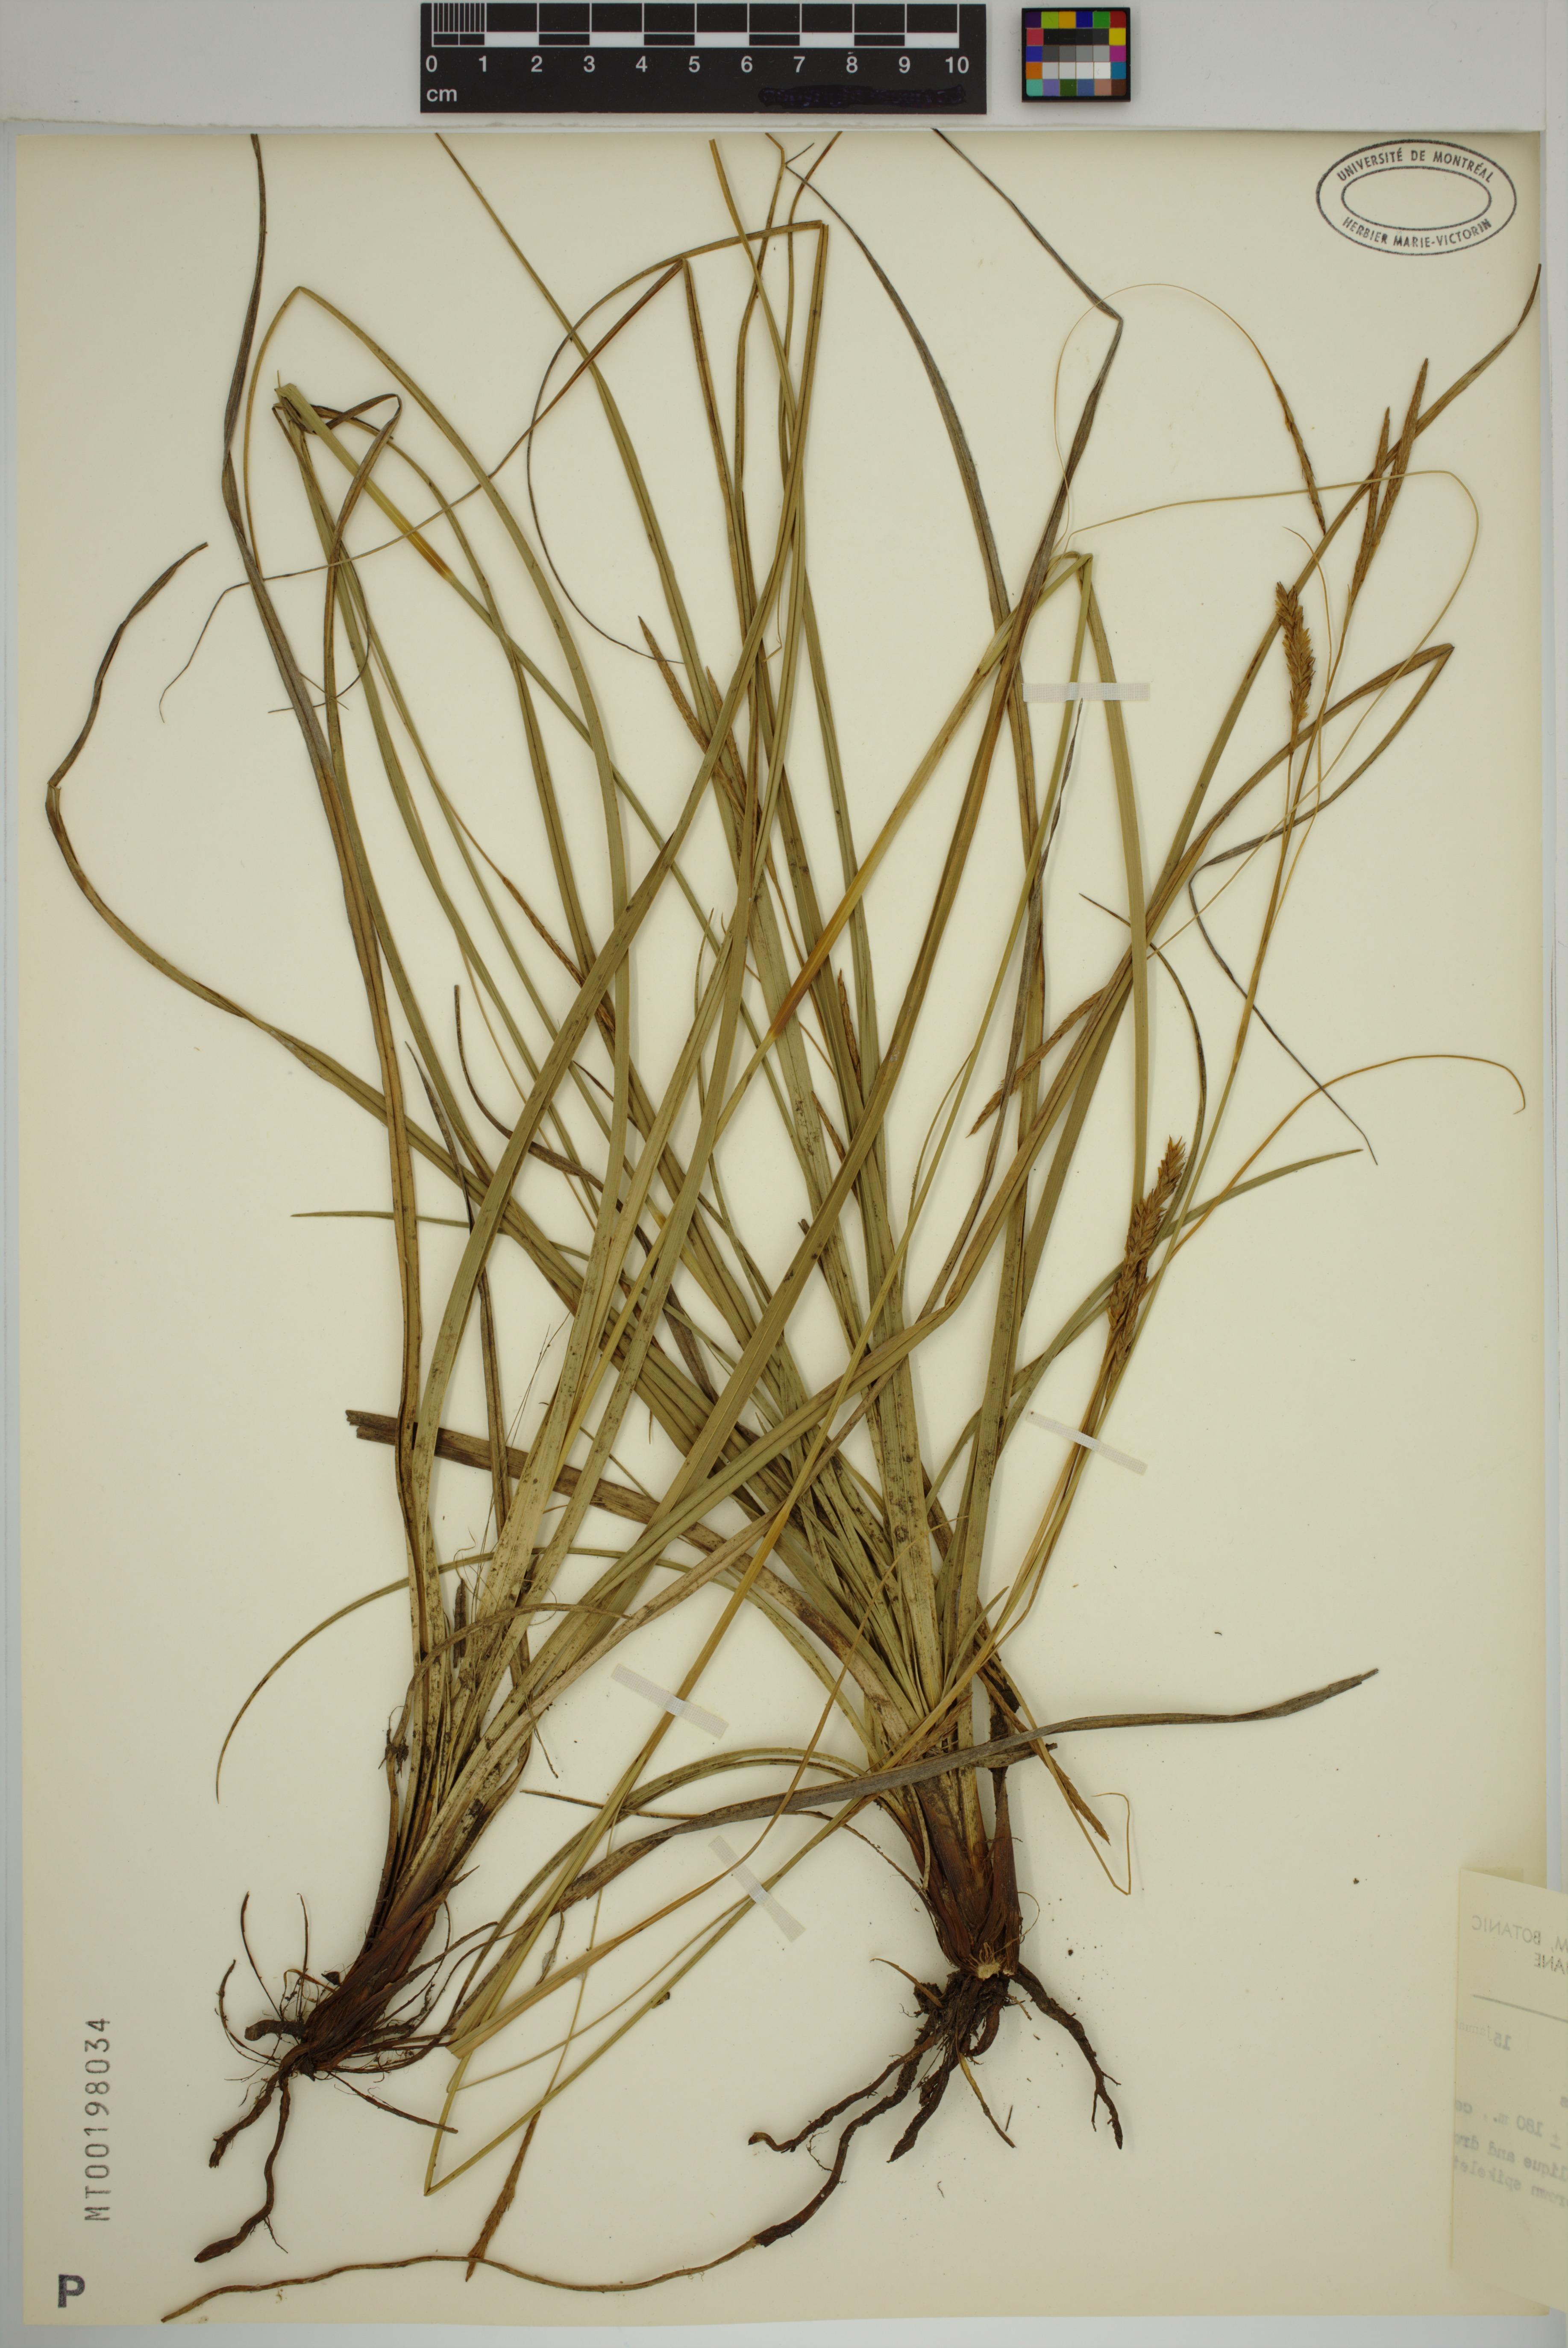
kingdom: Plantae
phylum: Tracheophyta
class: Liliopsida
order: Poales
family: Cyperaceae
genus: Carex
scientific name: Carex iynx
